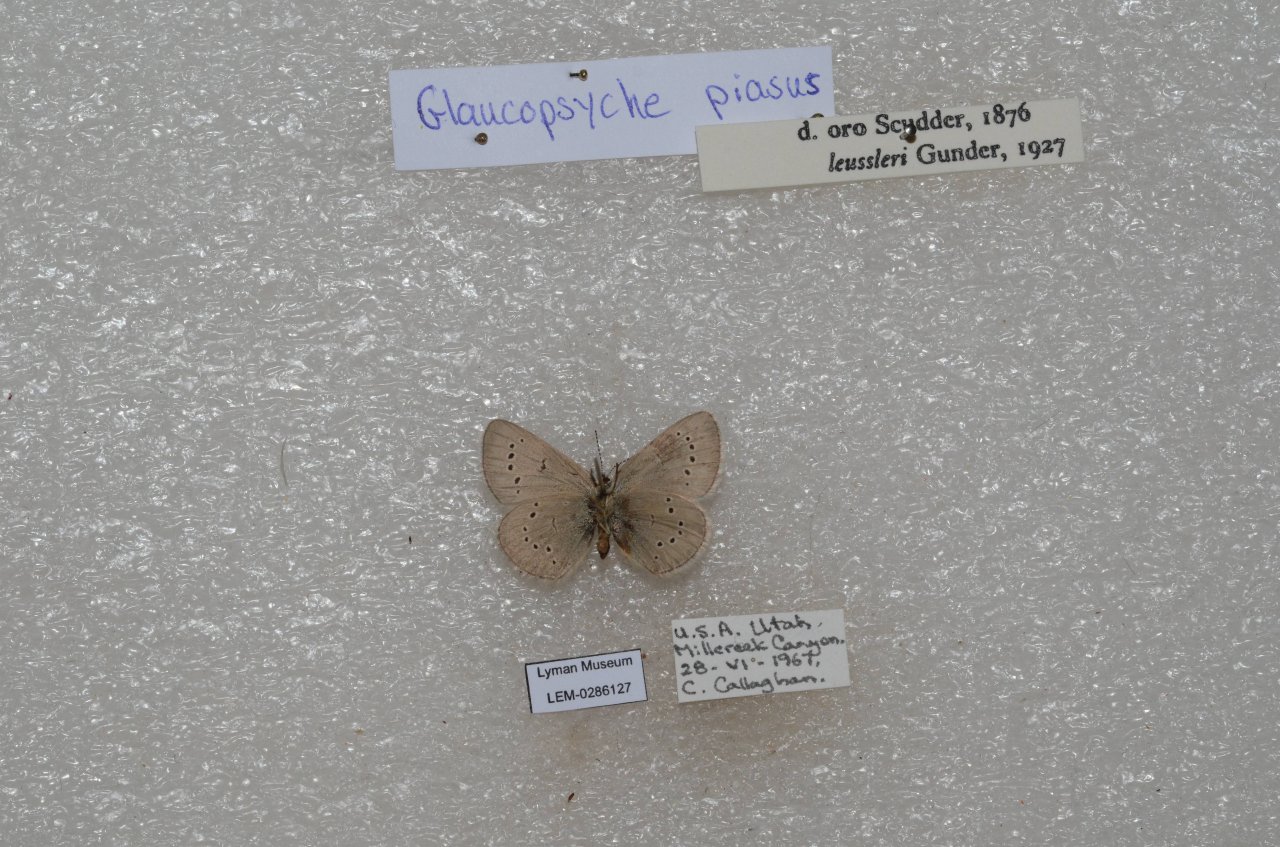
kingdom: Animalia
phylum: Arthropoda
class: Insecta
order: Lepidoptera
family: Lycaenidae
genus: Glaucopsyche
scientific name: Glaucopsyche piasus
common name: Arrowhead Blue
